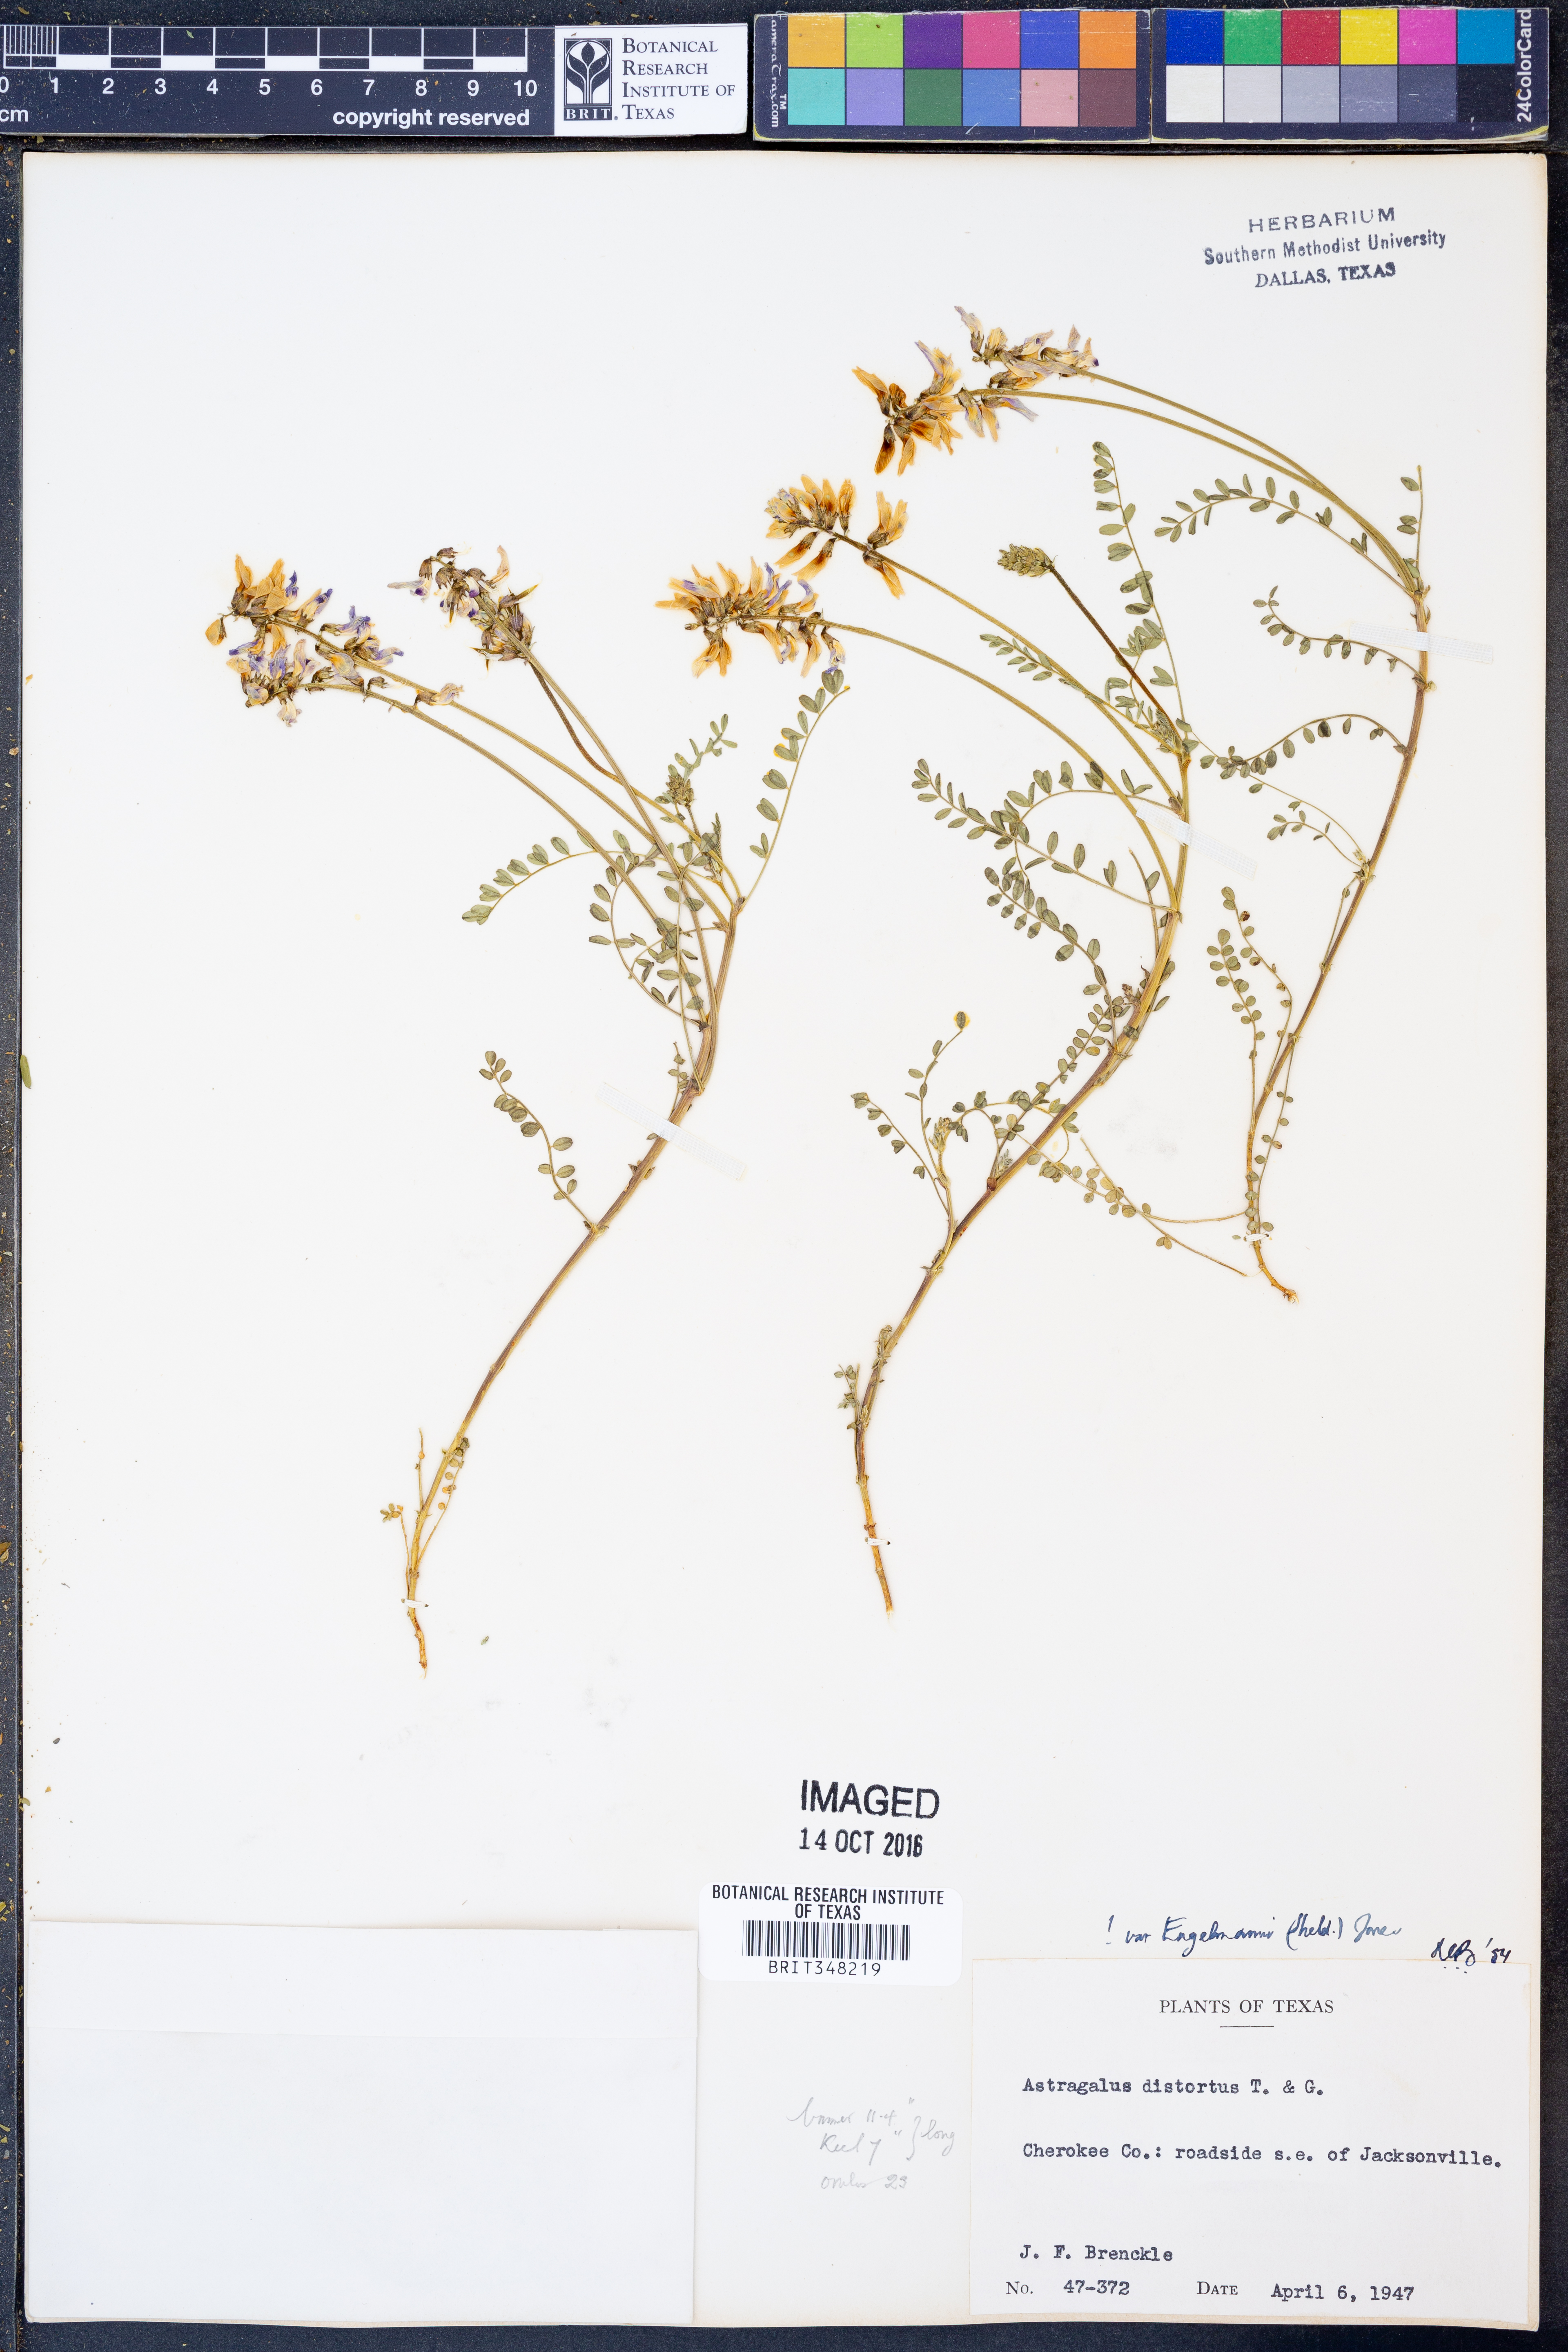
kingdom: Plantae
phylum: Tracheophyta
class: Magnoliopsida
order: Fabales
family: Fabaceae
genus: Astragalus
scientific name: Astragalus distortus
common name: Ozark milk-vetch
